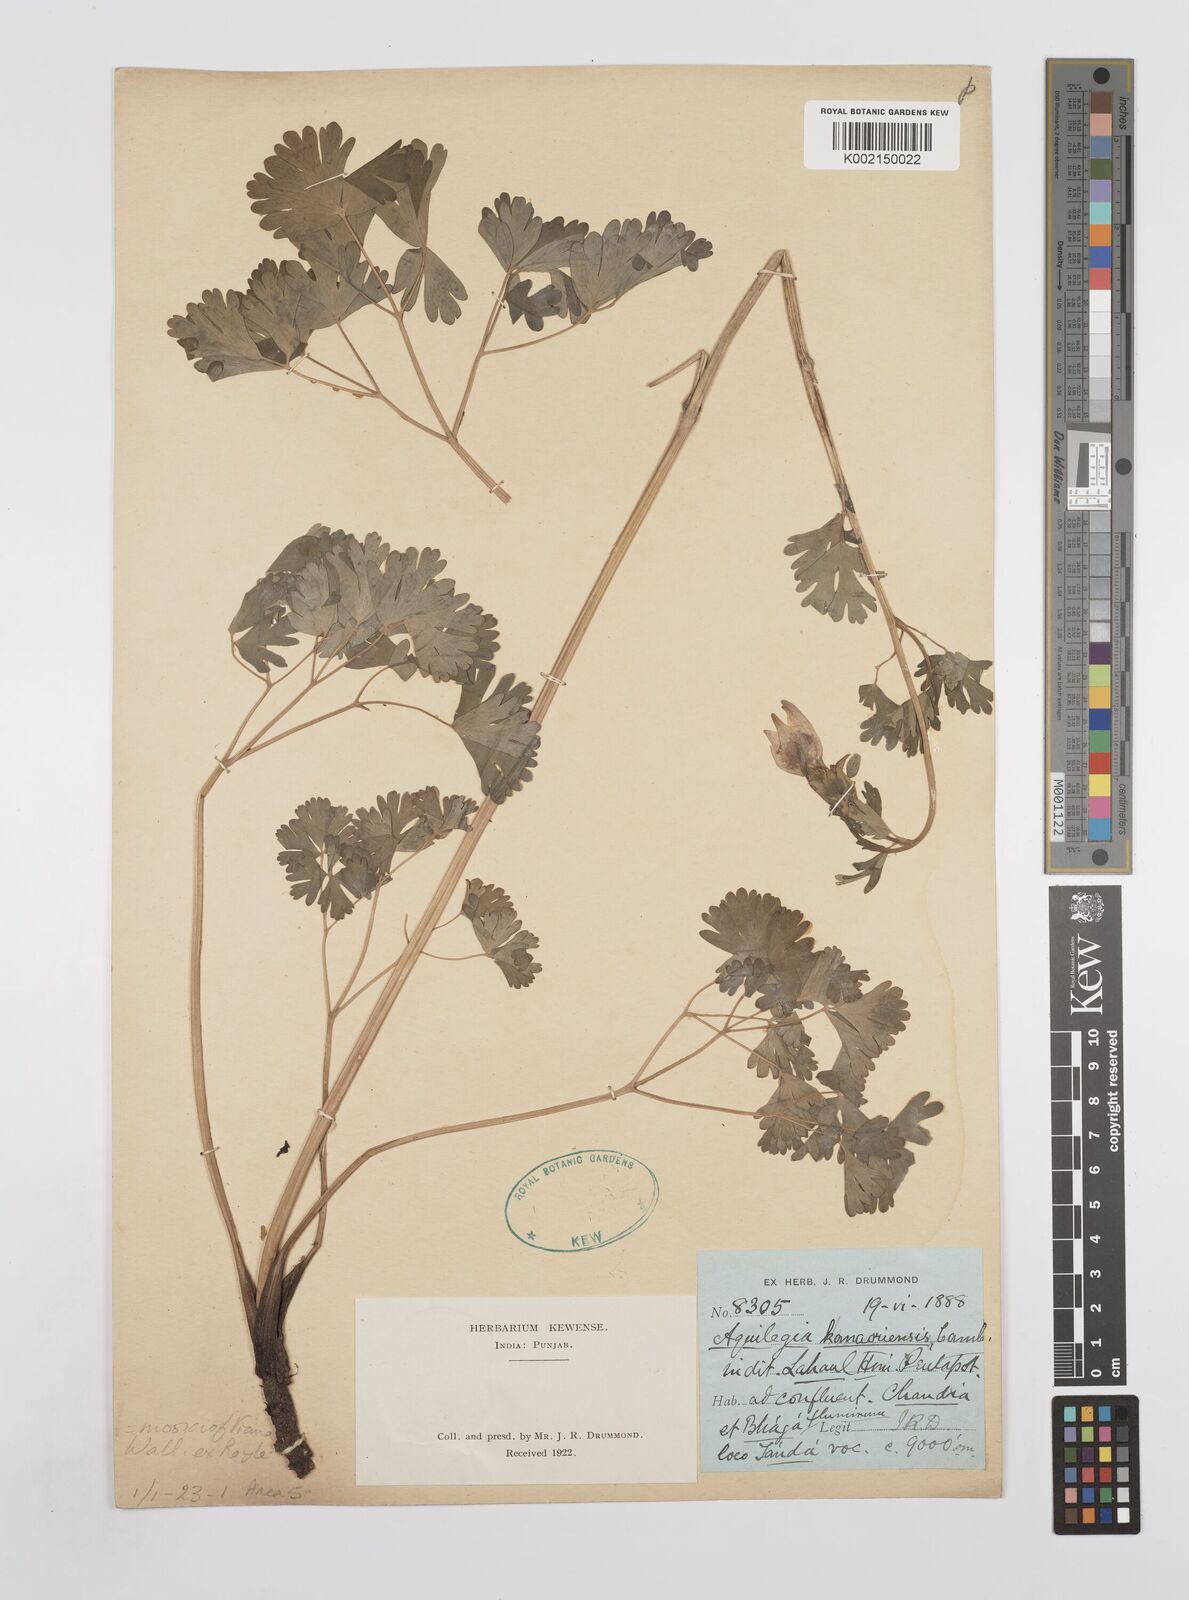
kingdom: Plantae
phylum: Tracheophyta
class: Magnoliopsida
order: Ranunculales
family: Ranunculaceae
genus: Aquilegia
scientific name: Aquilegia fragrans
